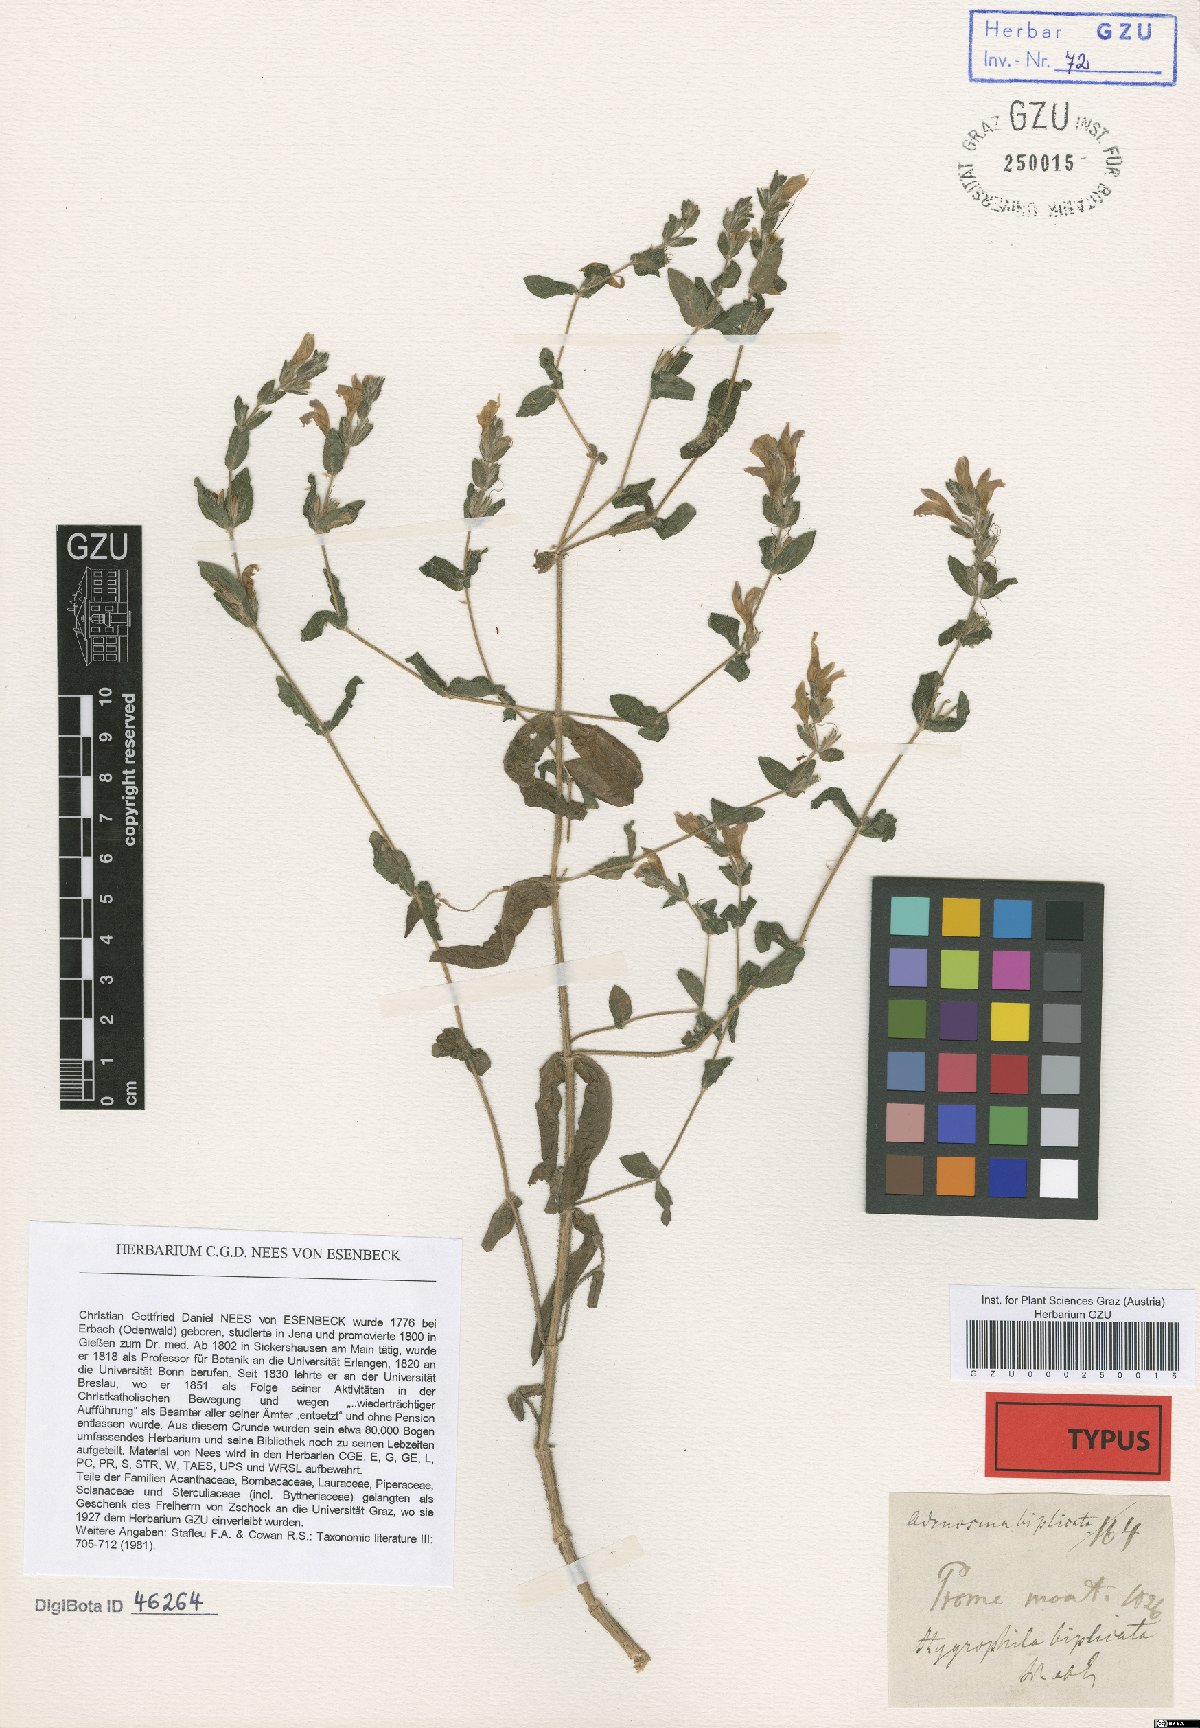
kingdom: Plantae
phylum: Tracheophyta
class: Magnoliopsida
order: Lamiales
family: Acanthaceae
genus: Hygrophila
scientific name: Hygrophila biplicata
